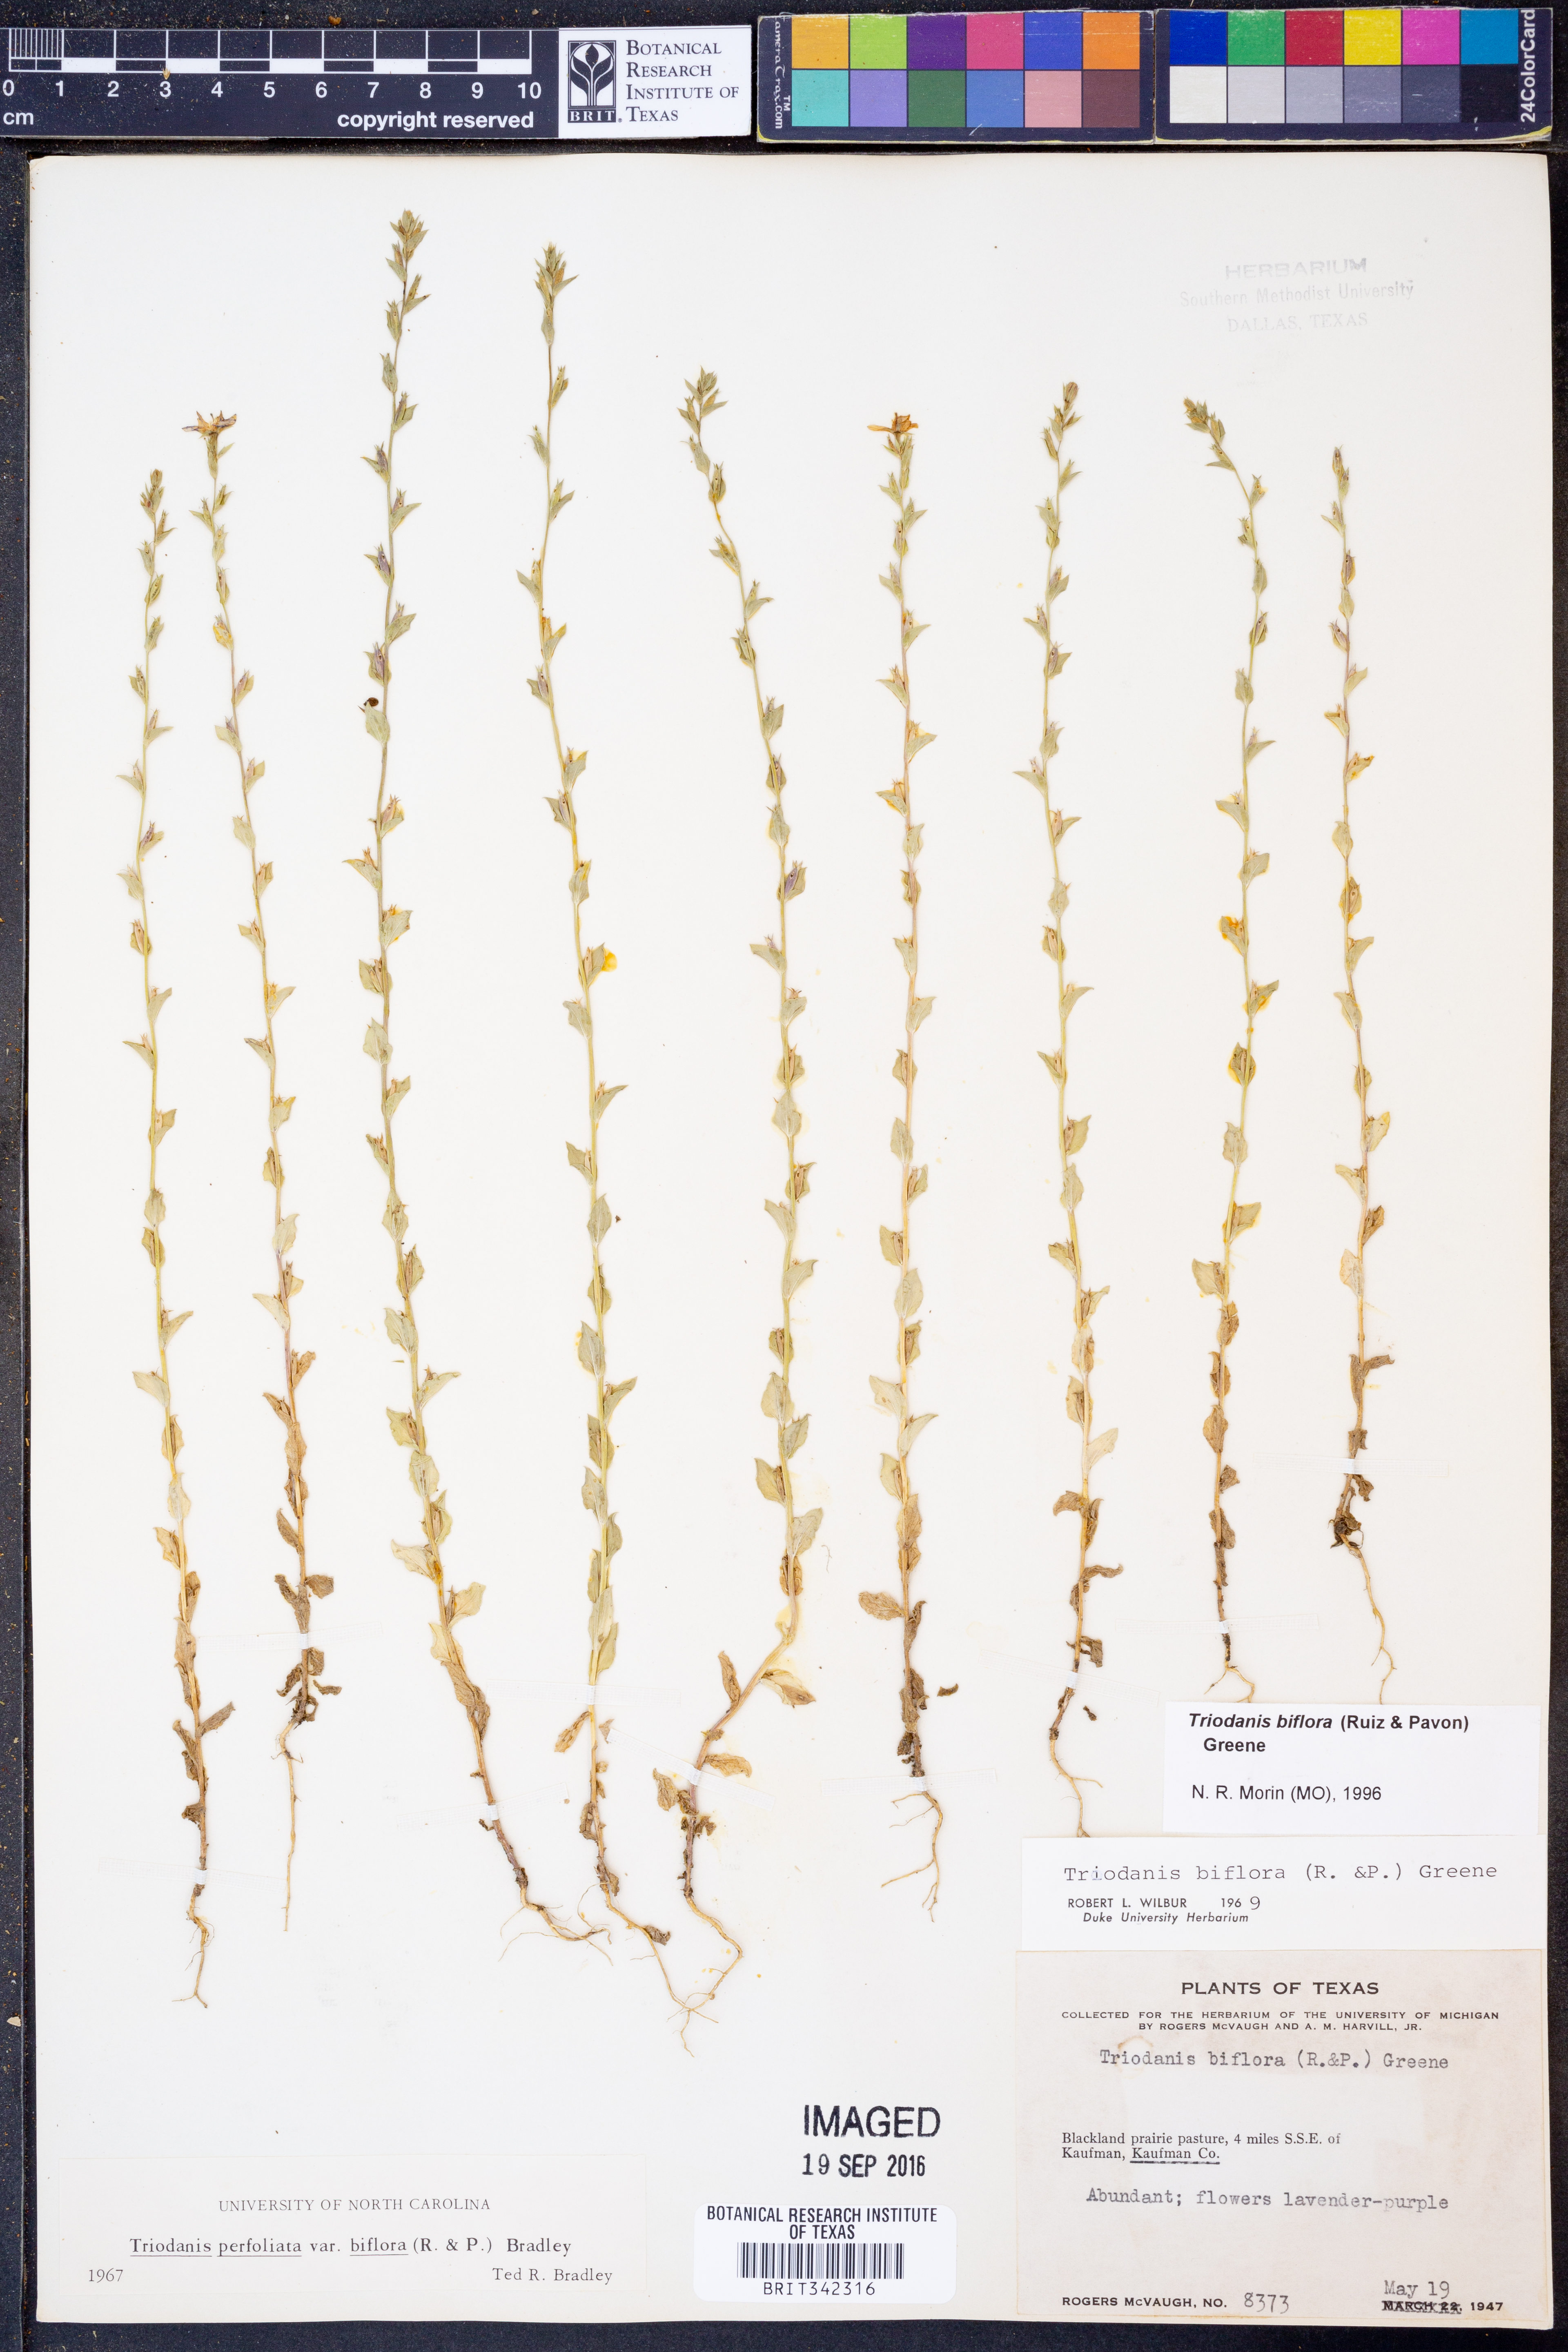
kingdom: Plantae
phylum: Tracheophyta
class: Magnoliopsida
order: Asterales
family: Campanulaceae
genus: Triodanis
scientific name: Triodanis perfoliata
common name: Clasping venus' looking-glass
